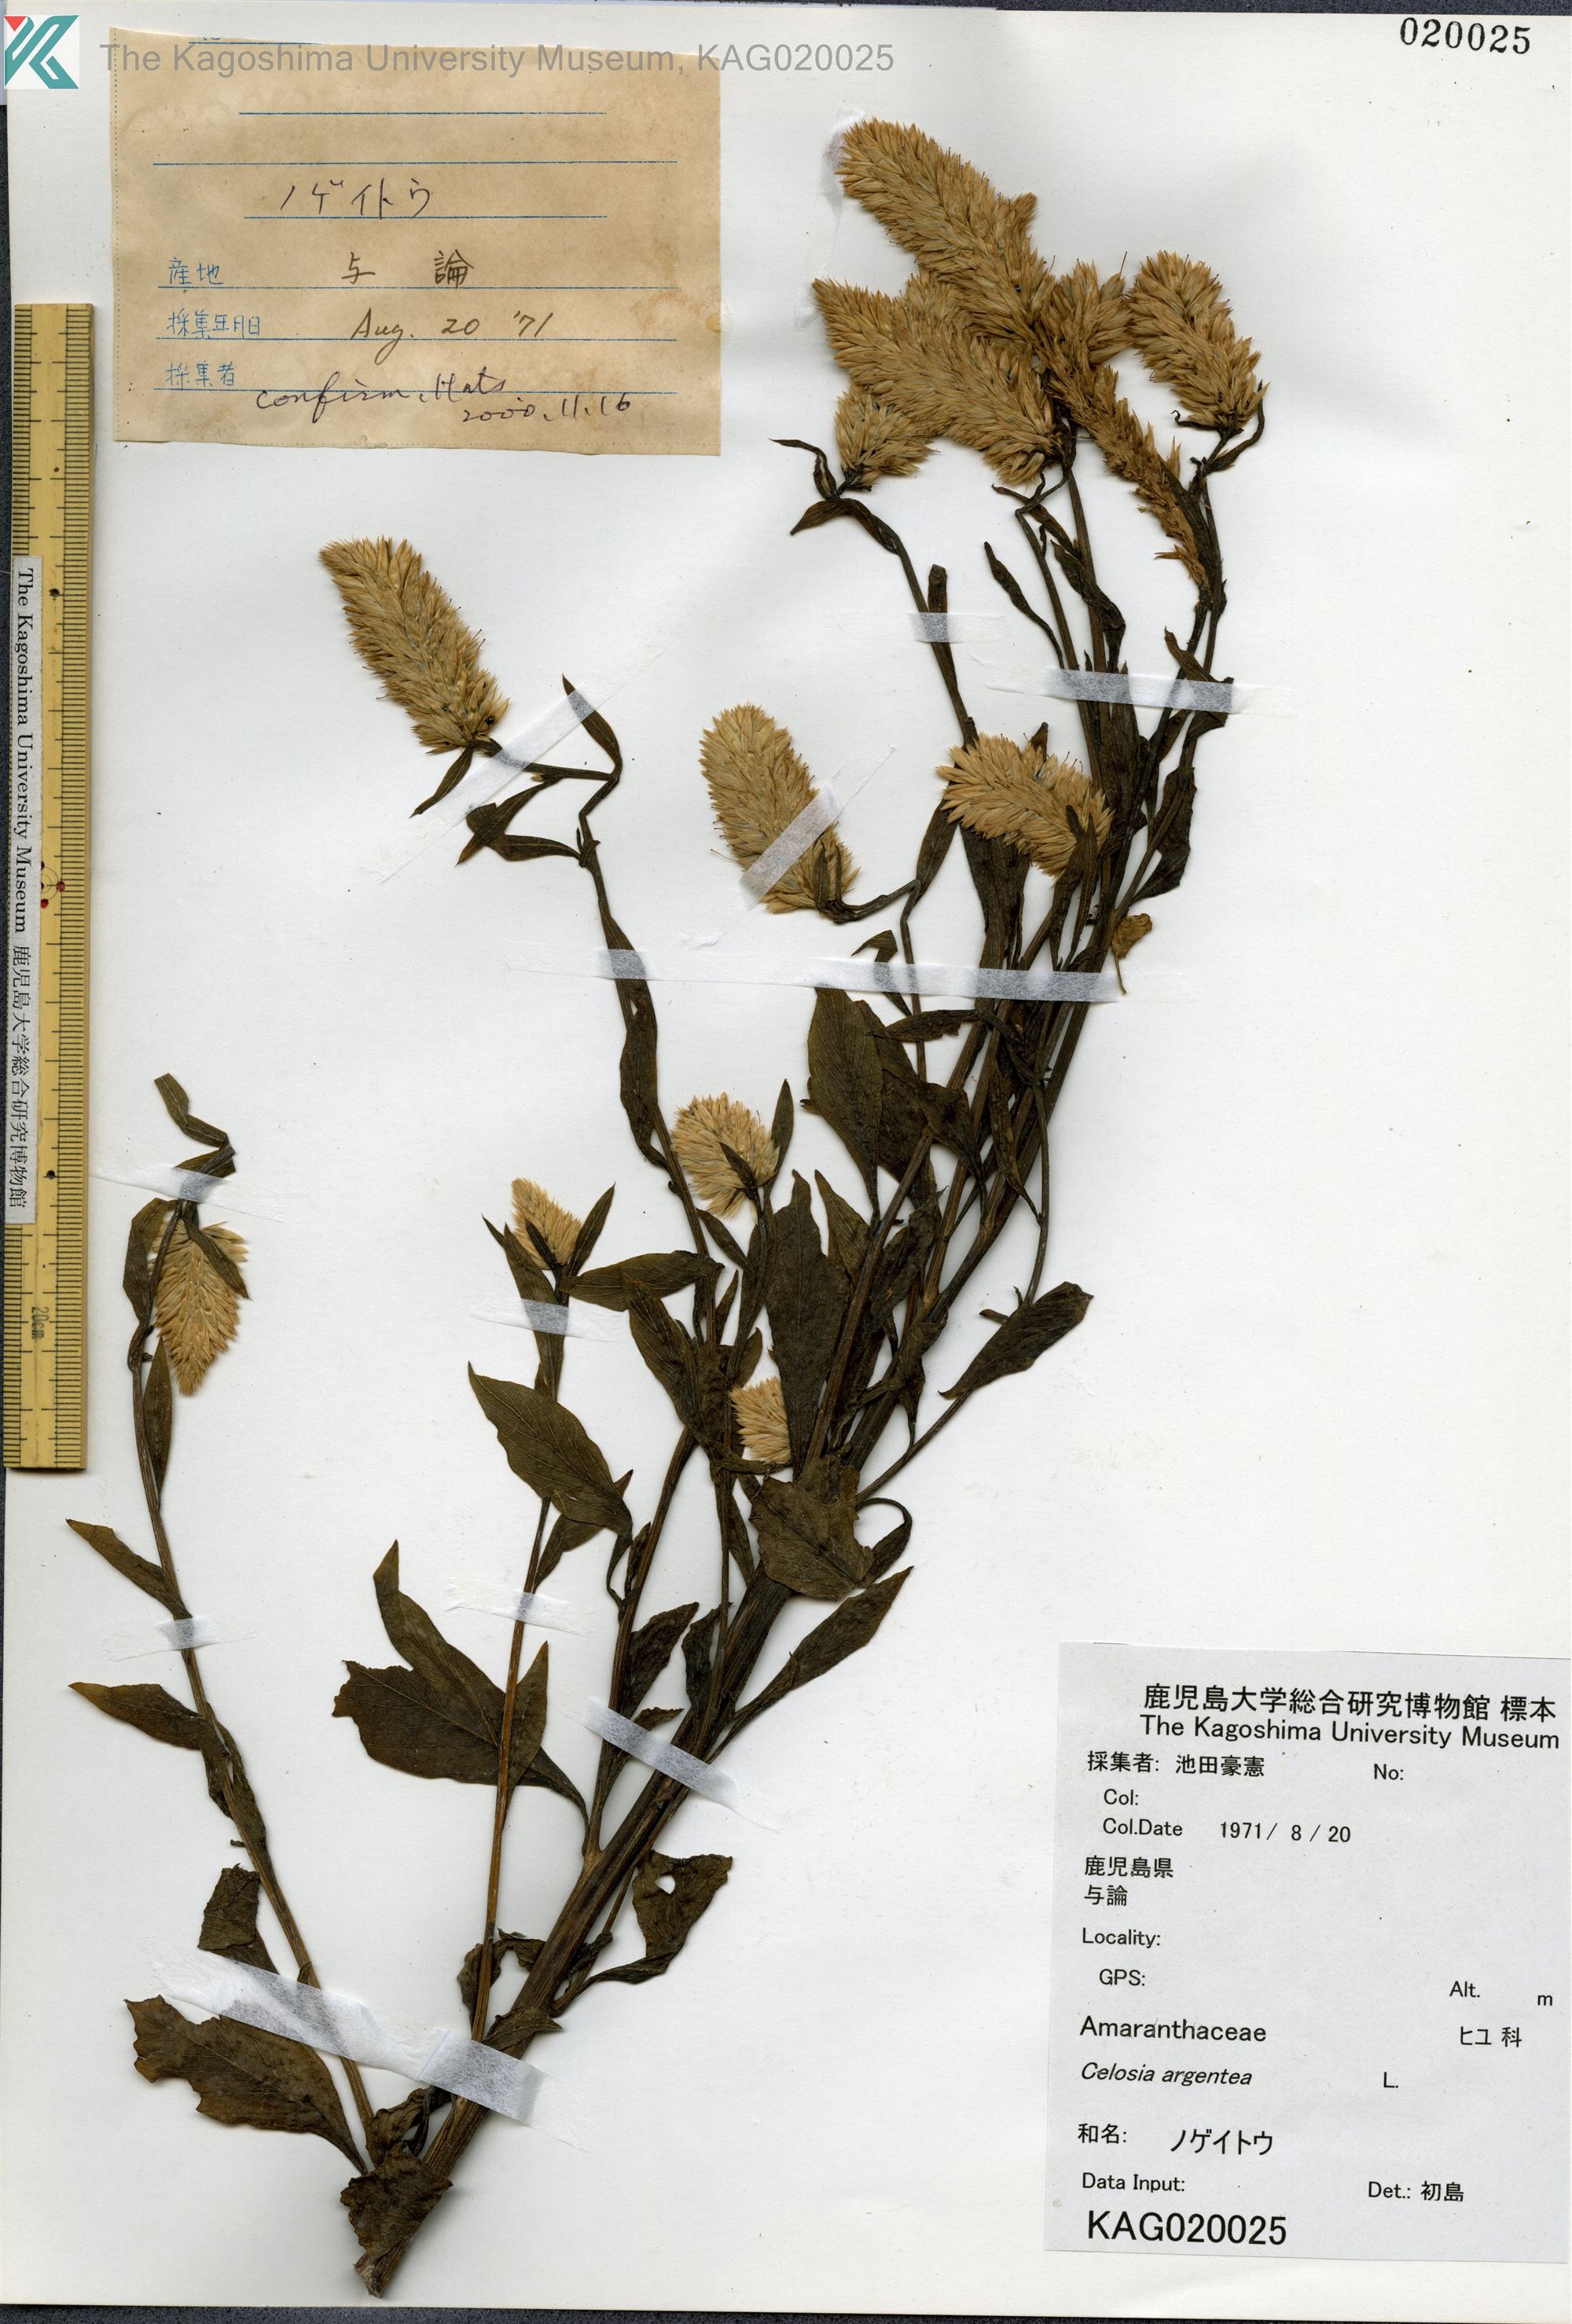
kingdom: Plantae
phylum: Tracheophyta
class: Magnoliopsida
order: Caryophyllales
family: Amaranthaceae
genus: Celosia
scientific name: Celosia argentea
